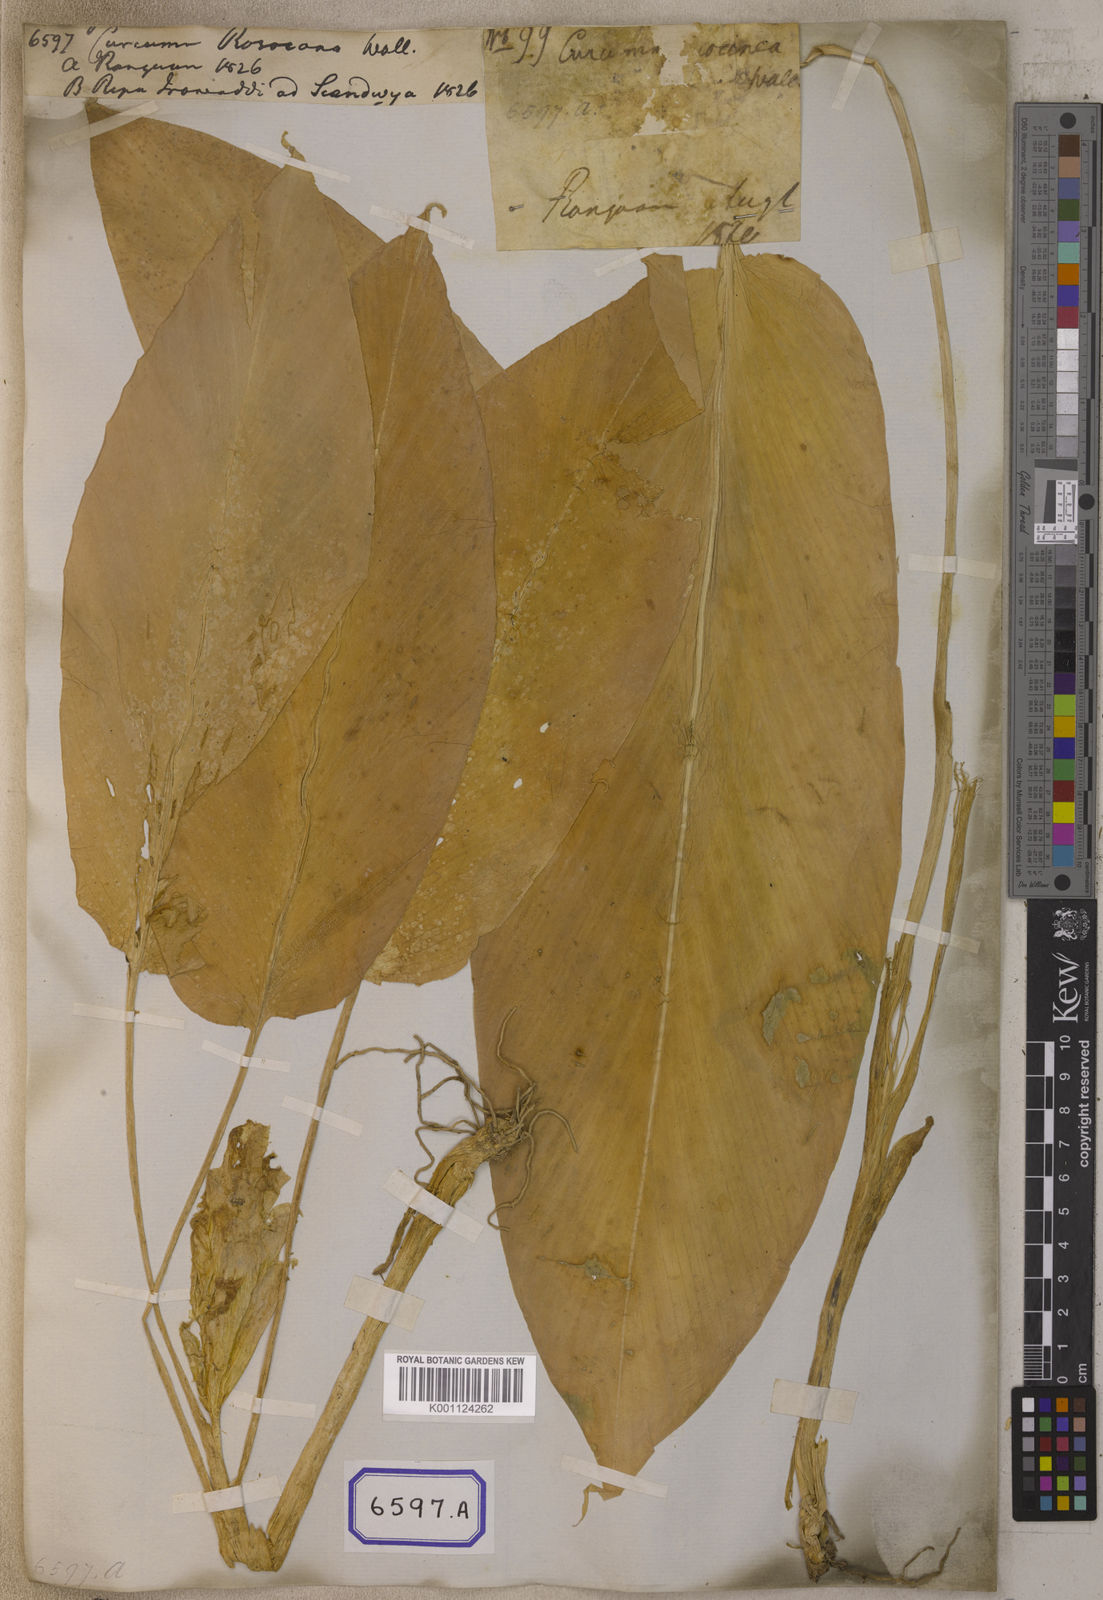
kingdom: Plantae
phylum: Tracheophyta
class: Liliopsida
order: Zingiberales
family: Zingiberaceae
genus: Curcuma
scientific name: Curcuma roscoeana
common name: Jewel of burma
